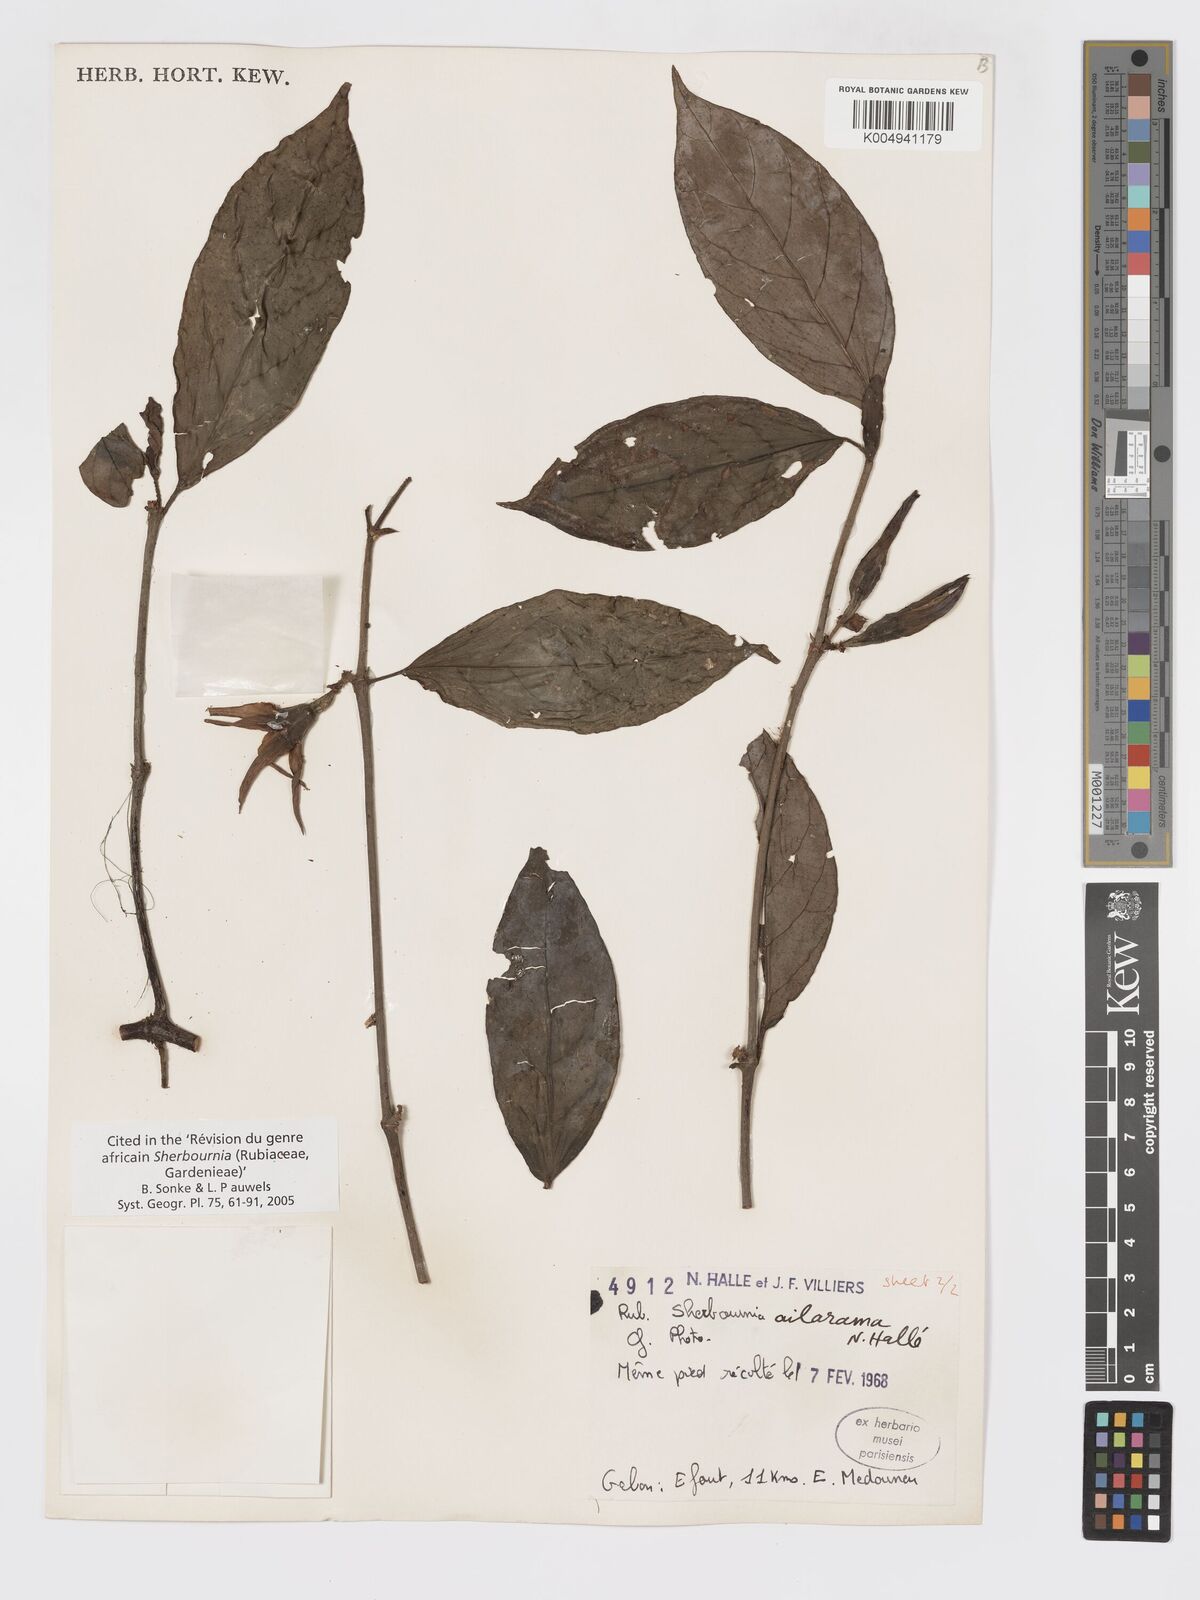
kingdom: Plantae
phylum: Tracheophyta
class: Magnoliopsida
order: Gentianales
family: Rubiaceae
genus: Sherbournia
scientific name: Sherbournia ailarama
